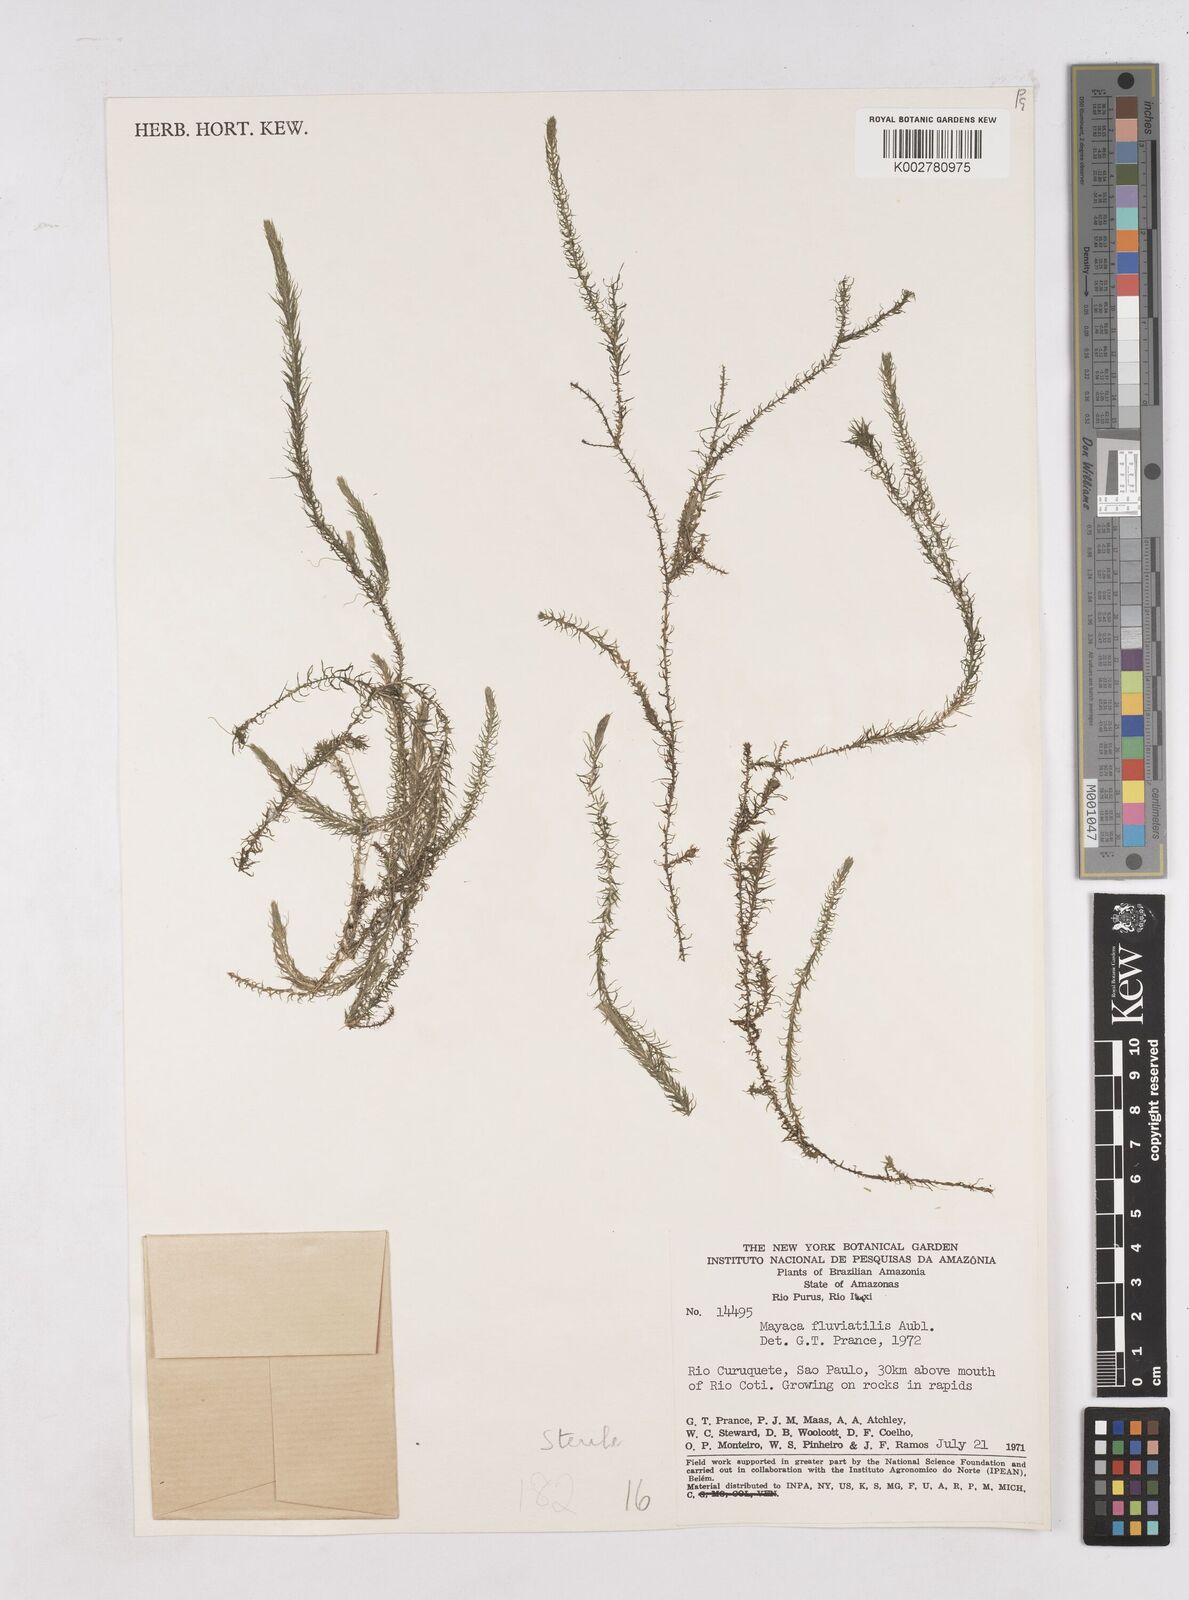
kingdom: Plantae
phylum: Tracheophyta
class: Liliopsida
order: Poales
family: Mayacaceae
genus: Mayaca
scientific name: Mayaca
